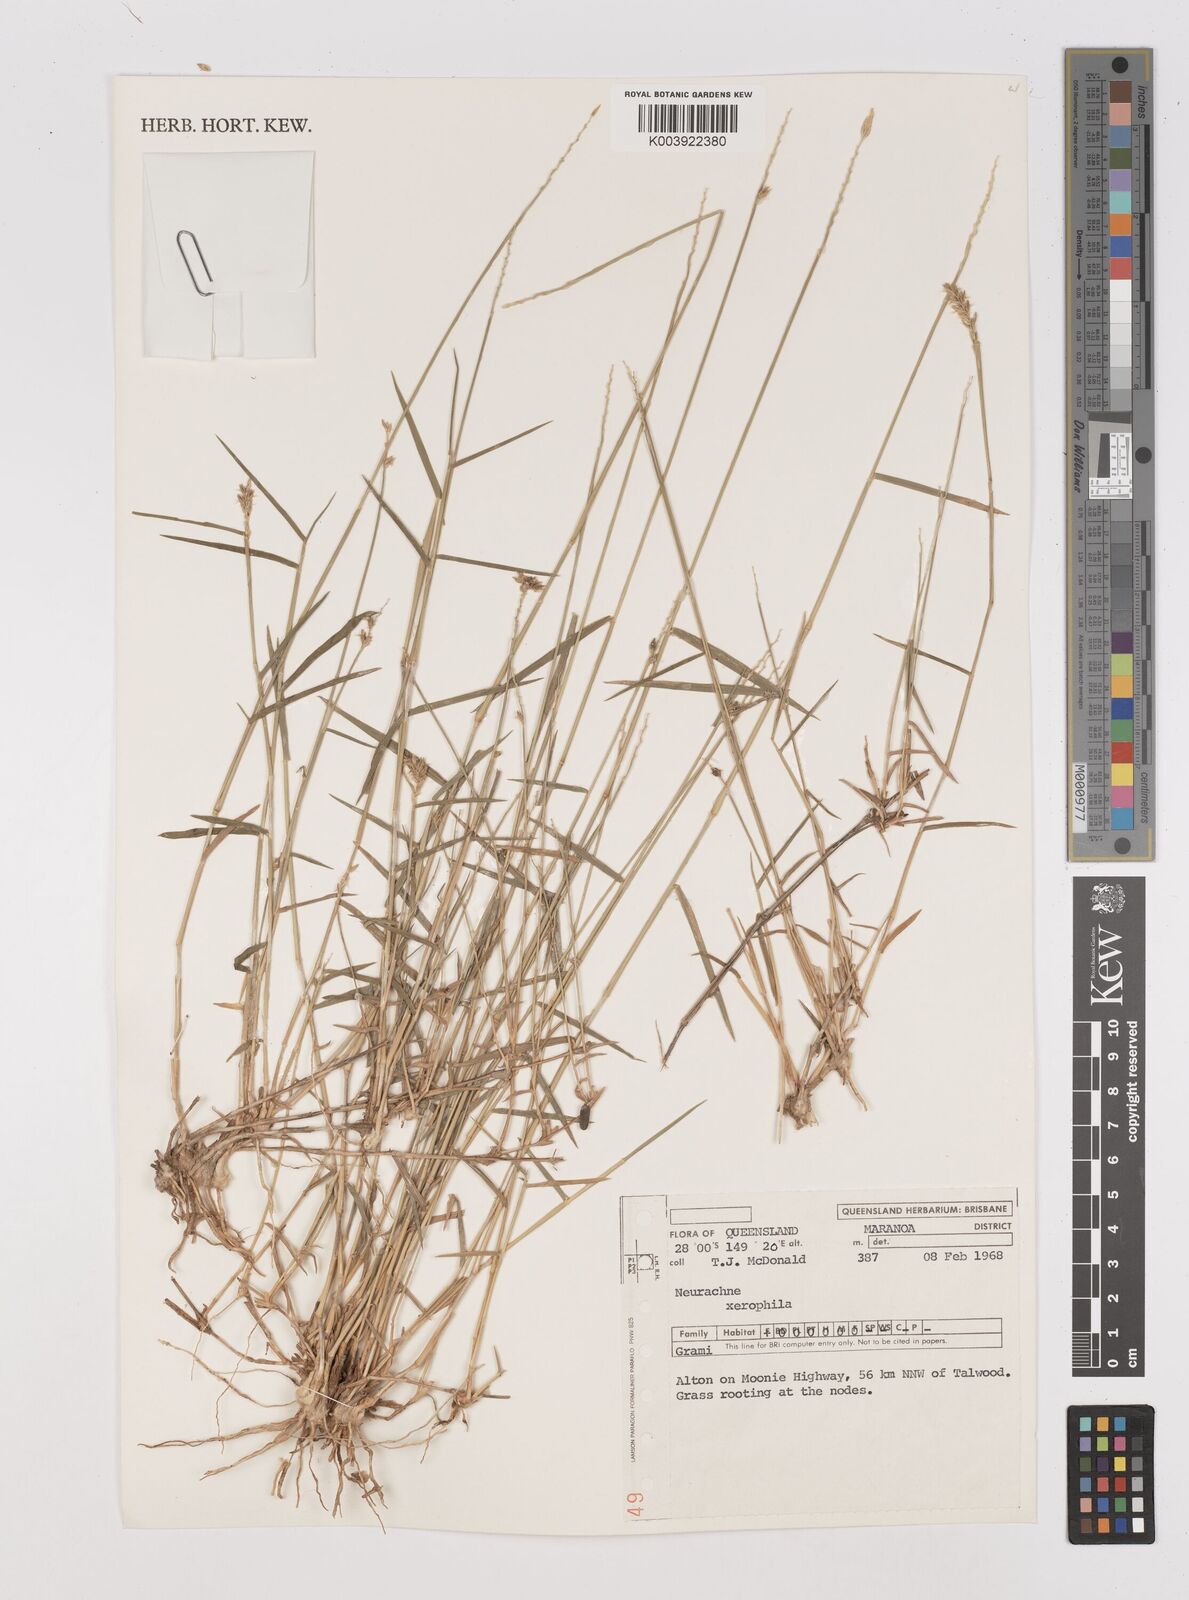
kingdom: Plantae
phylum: Tracheophyta
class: Liliopsida
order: Poales
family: Poaceae
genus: Thyridolepis
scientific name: Thyridolepis xerophila
